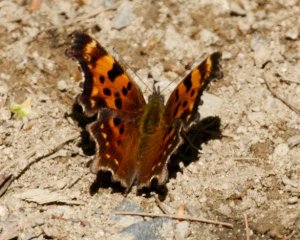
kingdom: Animalia
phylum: Arthropoda
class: Insecta
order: Lepidoptera
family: Nymphalidae
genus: Polygonia
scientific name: Polygonia faunus
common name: Green Comma
